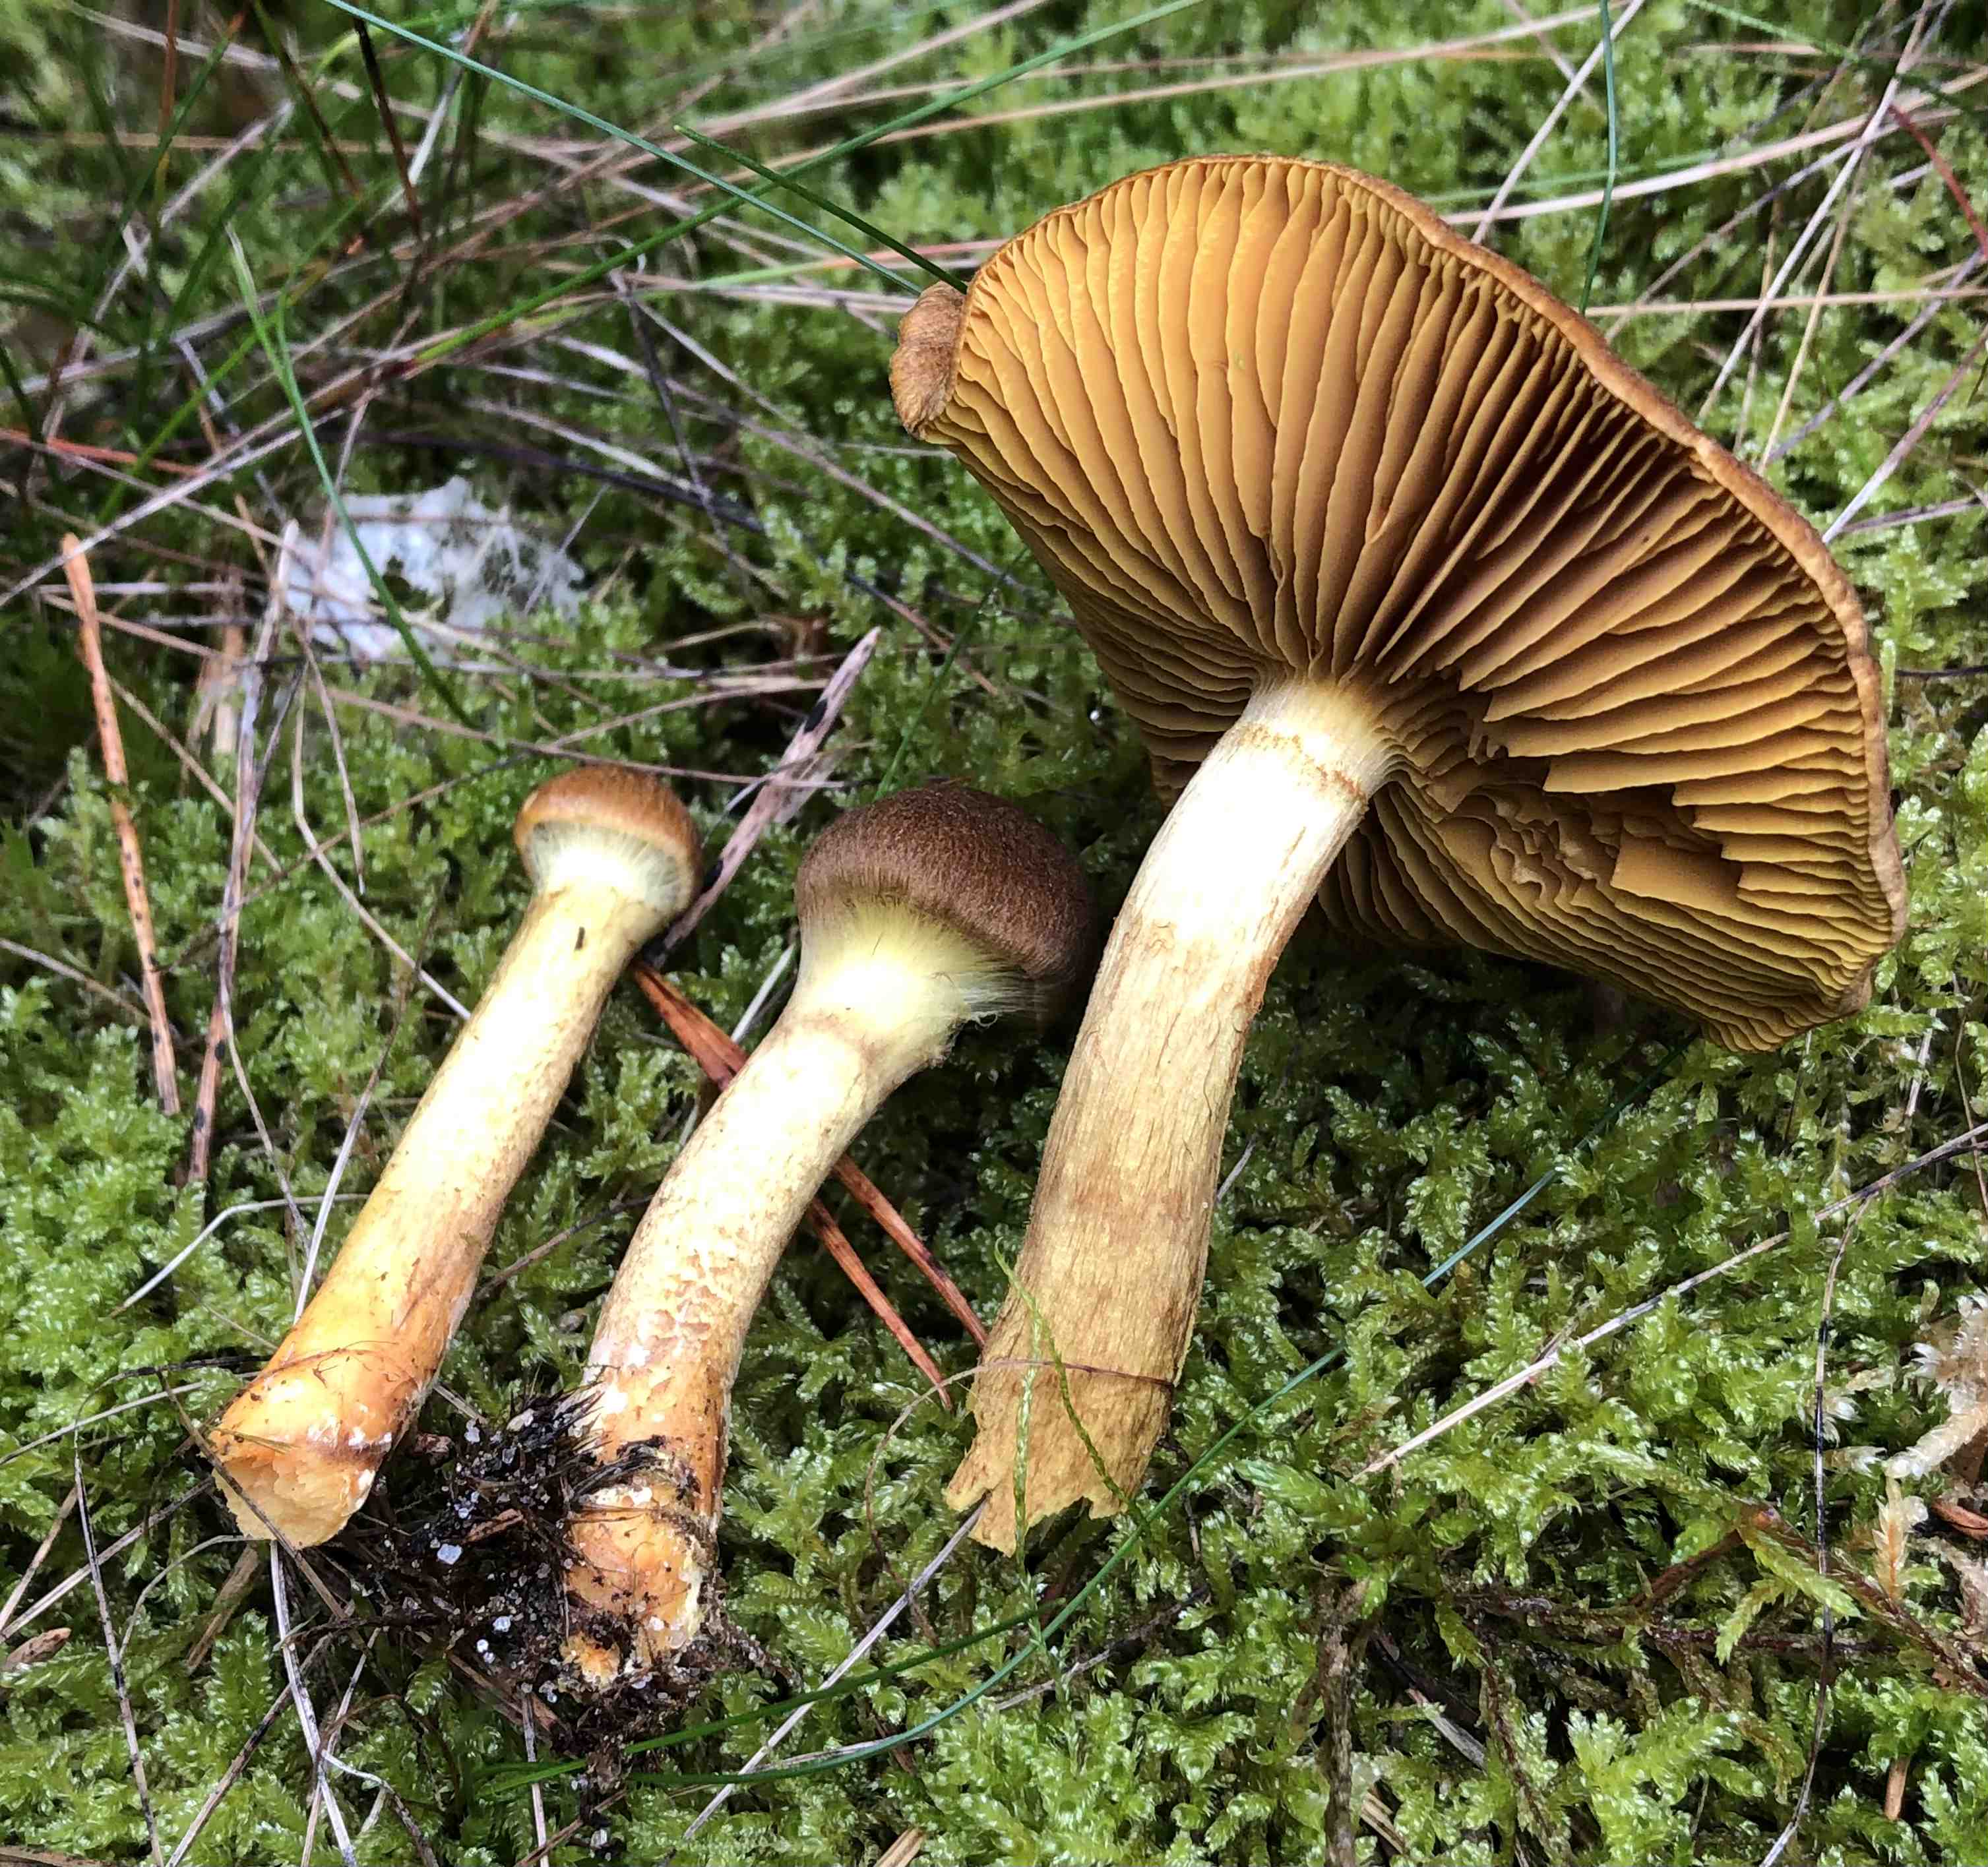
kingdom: Fungi
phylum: Basidiomycota
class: Agaricomycetes
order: Agaricales
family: Cortinariaceae
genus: Cortinarius
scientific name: Cortinarius
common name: gulbladet slørhat
